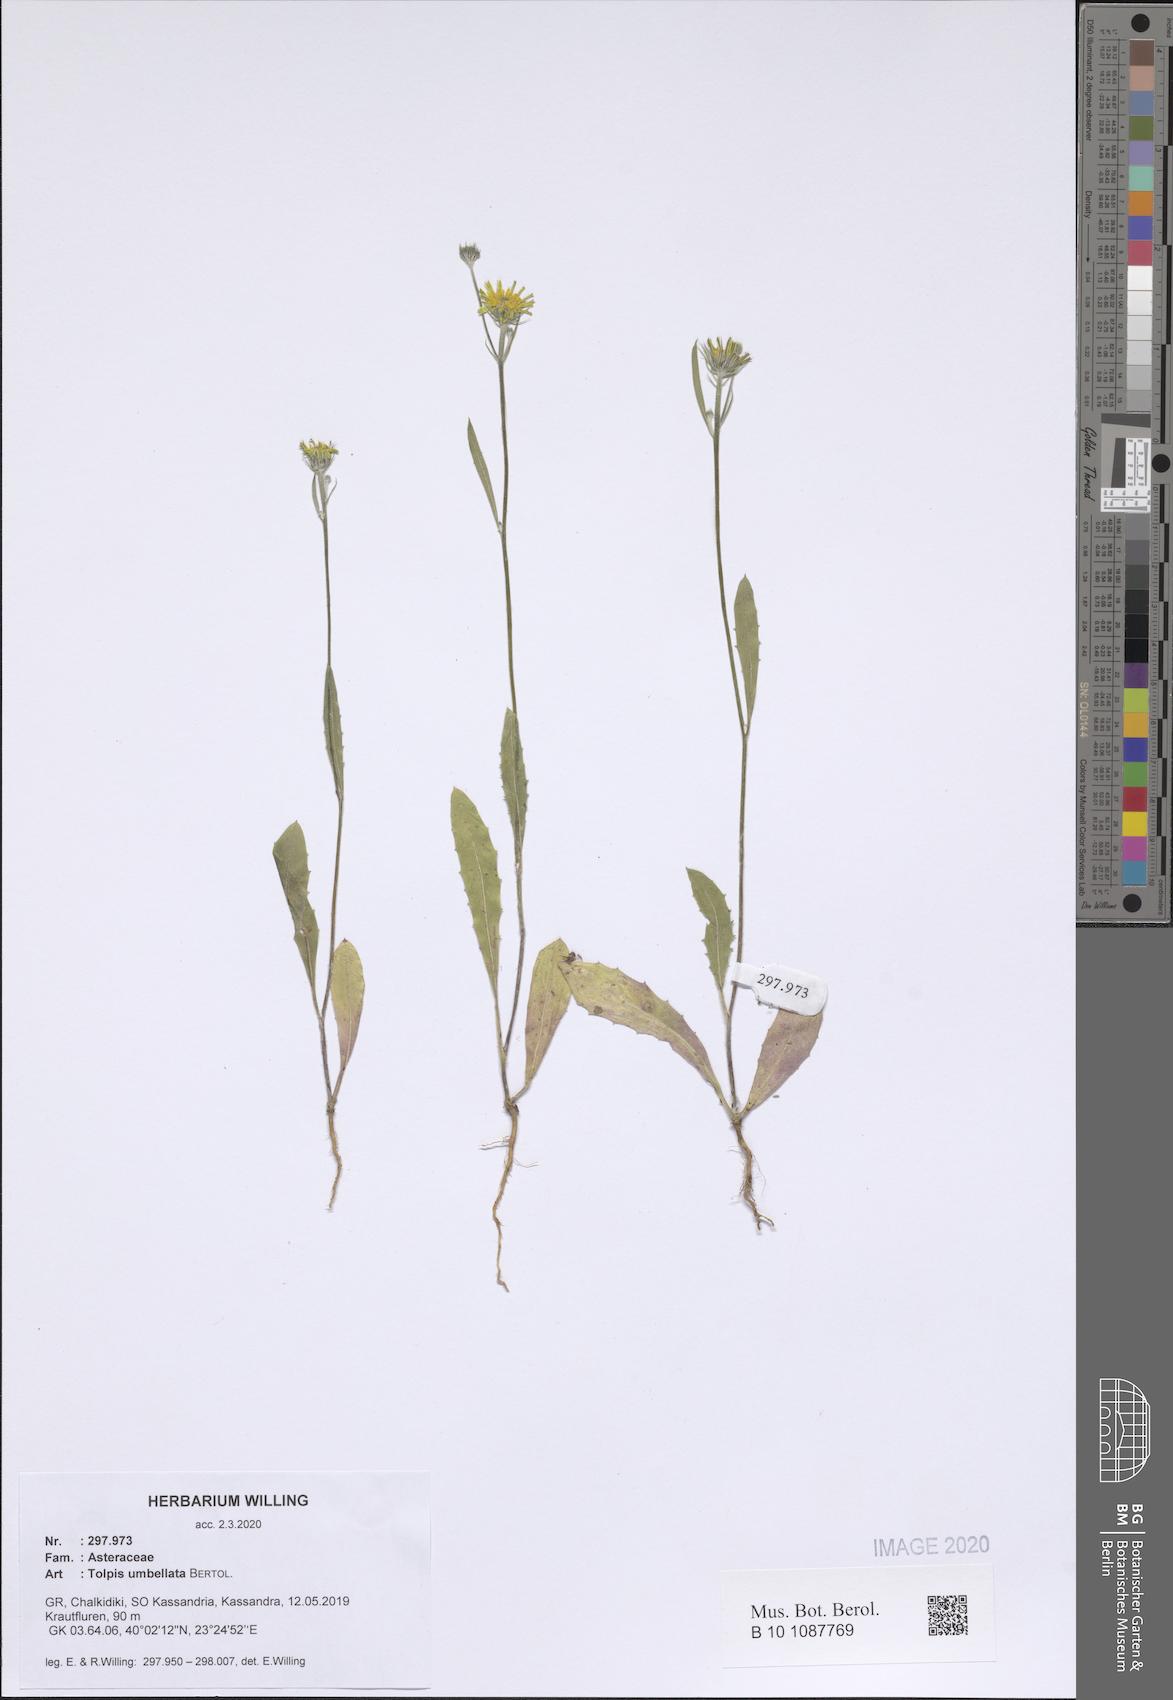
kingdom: Plantae
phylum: Tracheophyta
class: Magnoliopsida
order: Asterales
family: Asteraceae
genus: Tolpis
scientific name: Tolpis umbellata
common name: Yellow hawkweed
